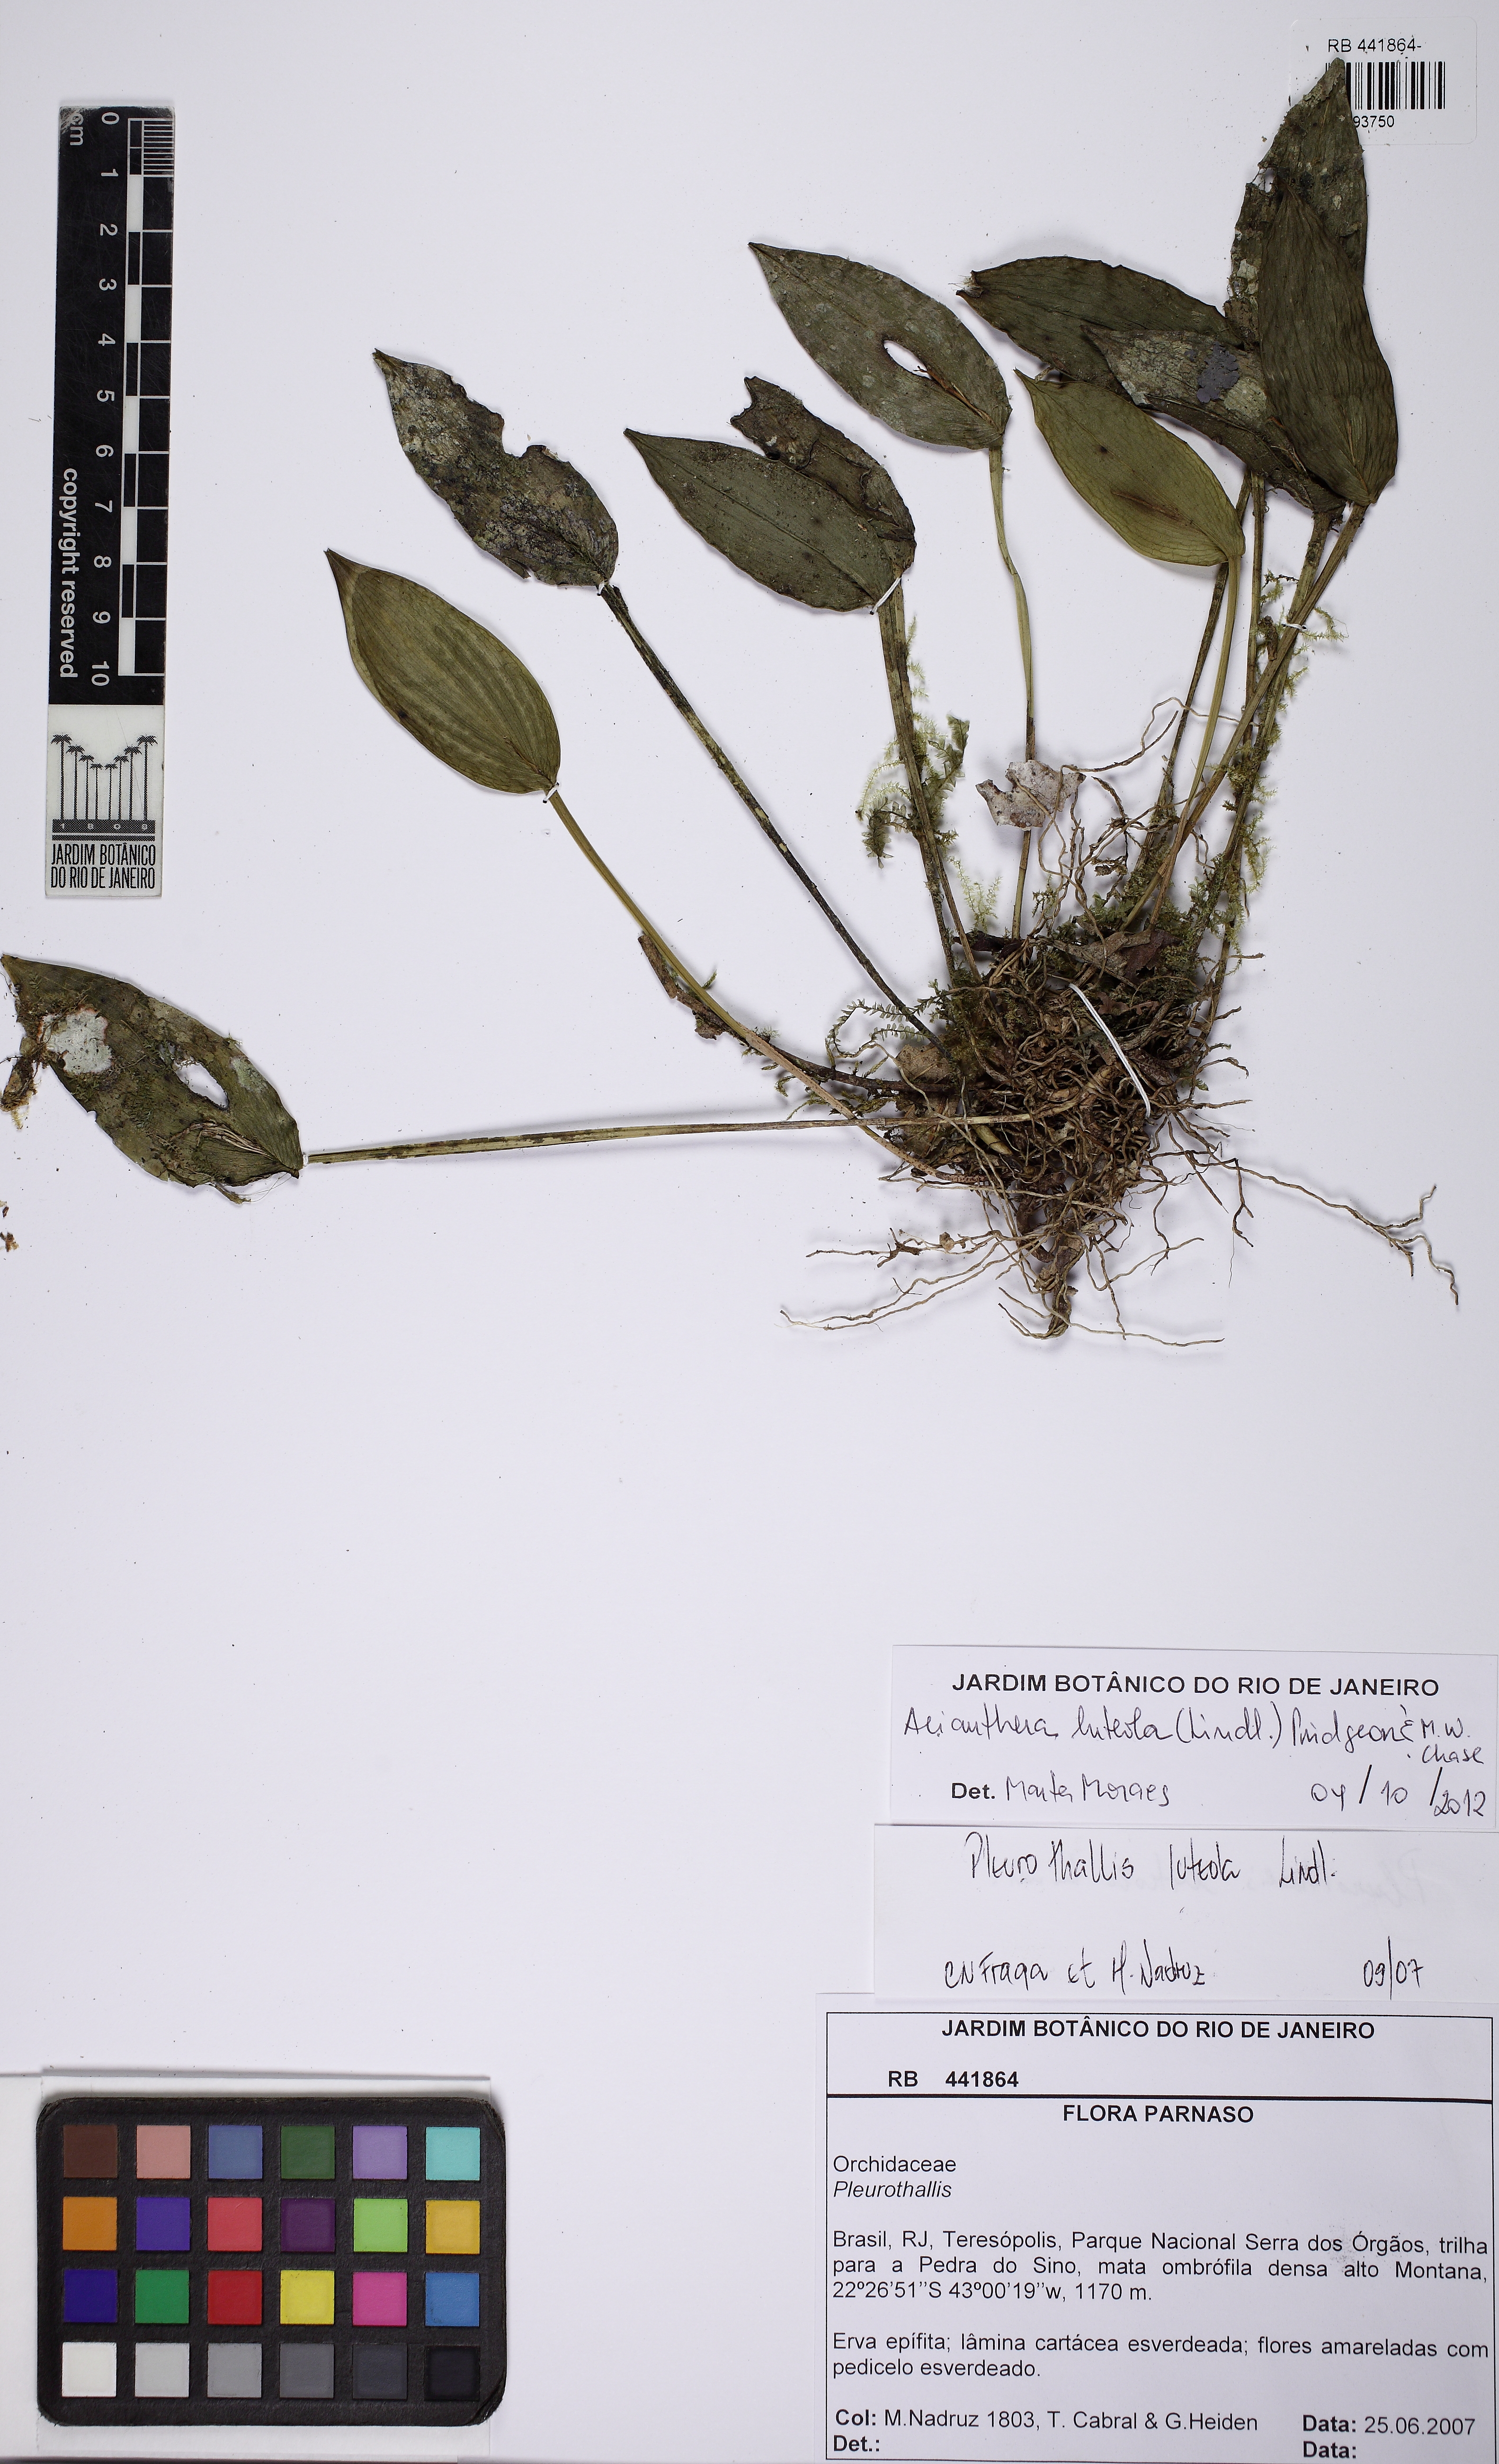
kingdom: Plantae
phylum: Tracheophyta
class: Liliopsida
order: Asparagales
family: Orchidaceae
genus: Acianthera
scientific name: Acianthera luteola
